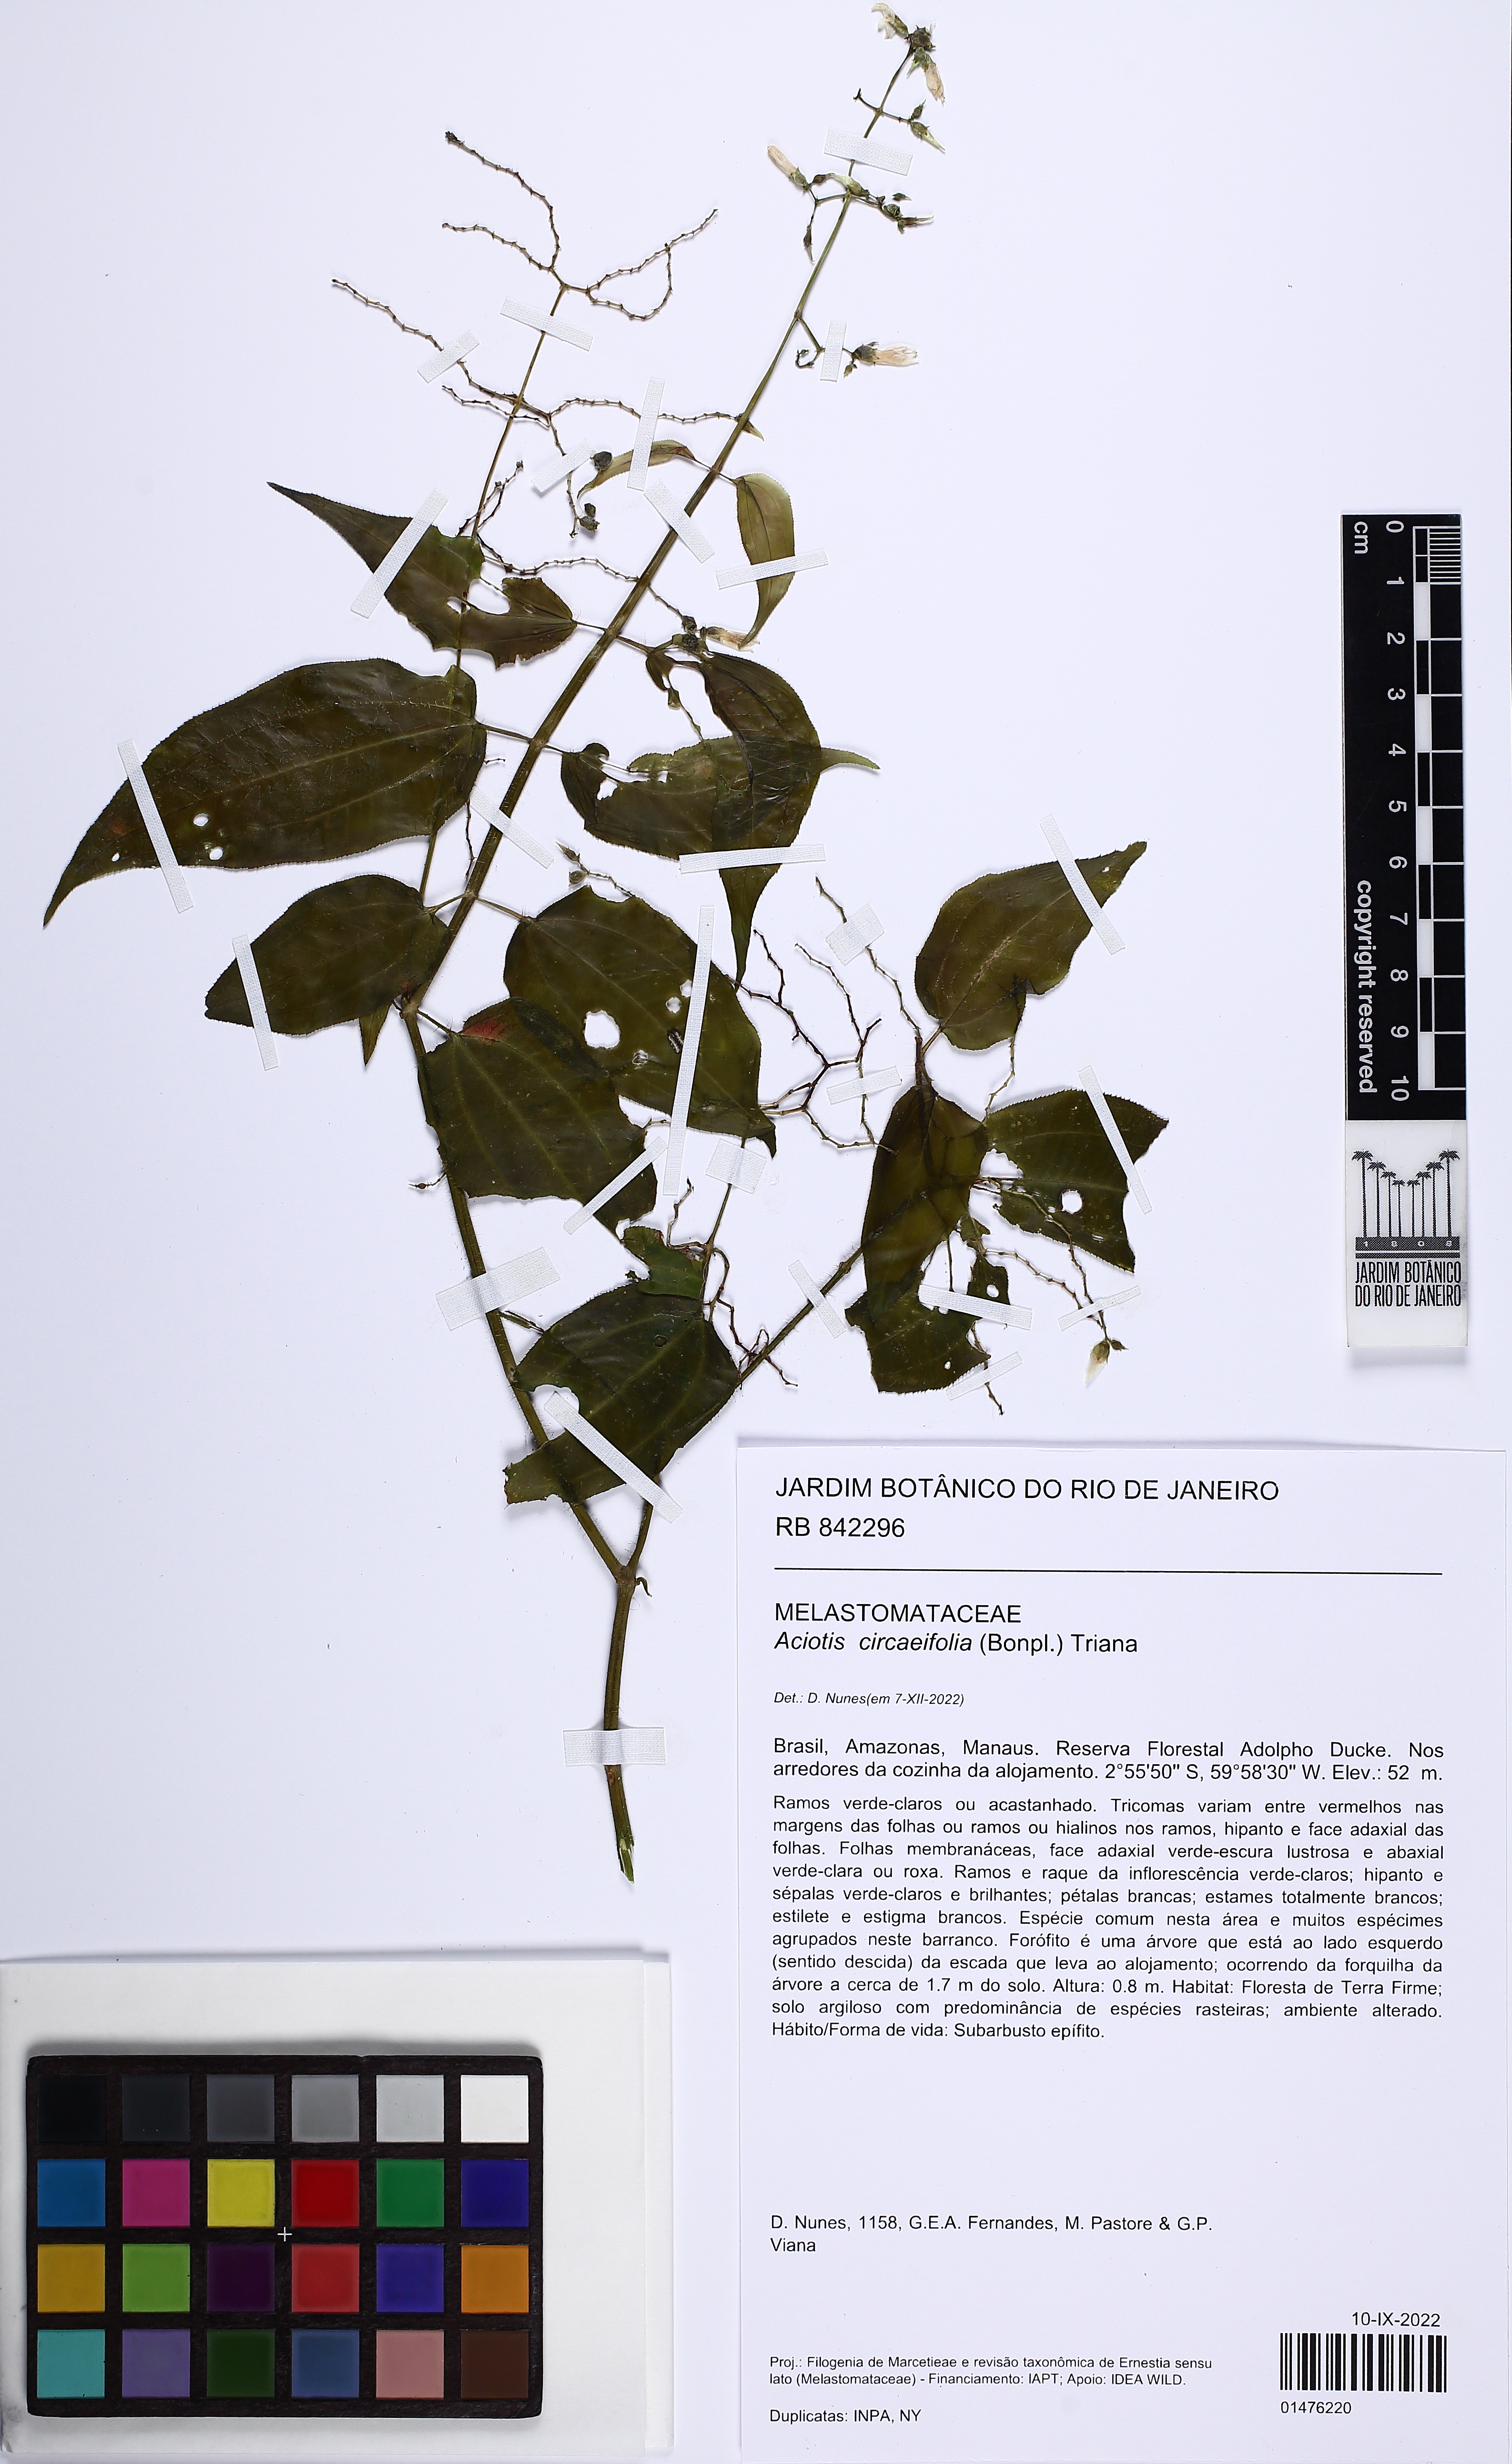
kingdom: Plantae
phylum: Tracheophyta
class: Magnoliopsida
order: Myrtales
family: Melastomataceae
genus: Aciotis
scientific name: Aciotis circaeifolia
